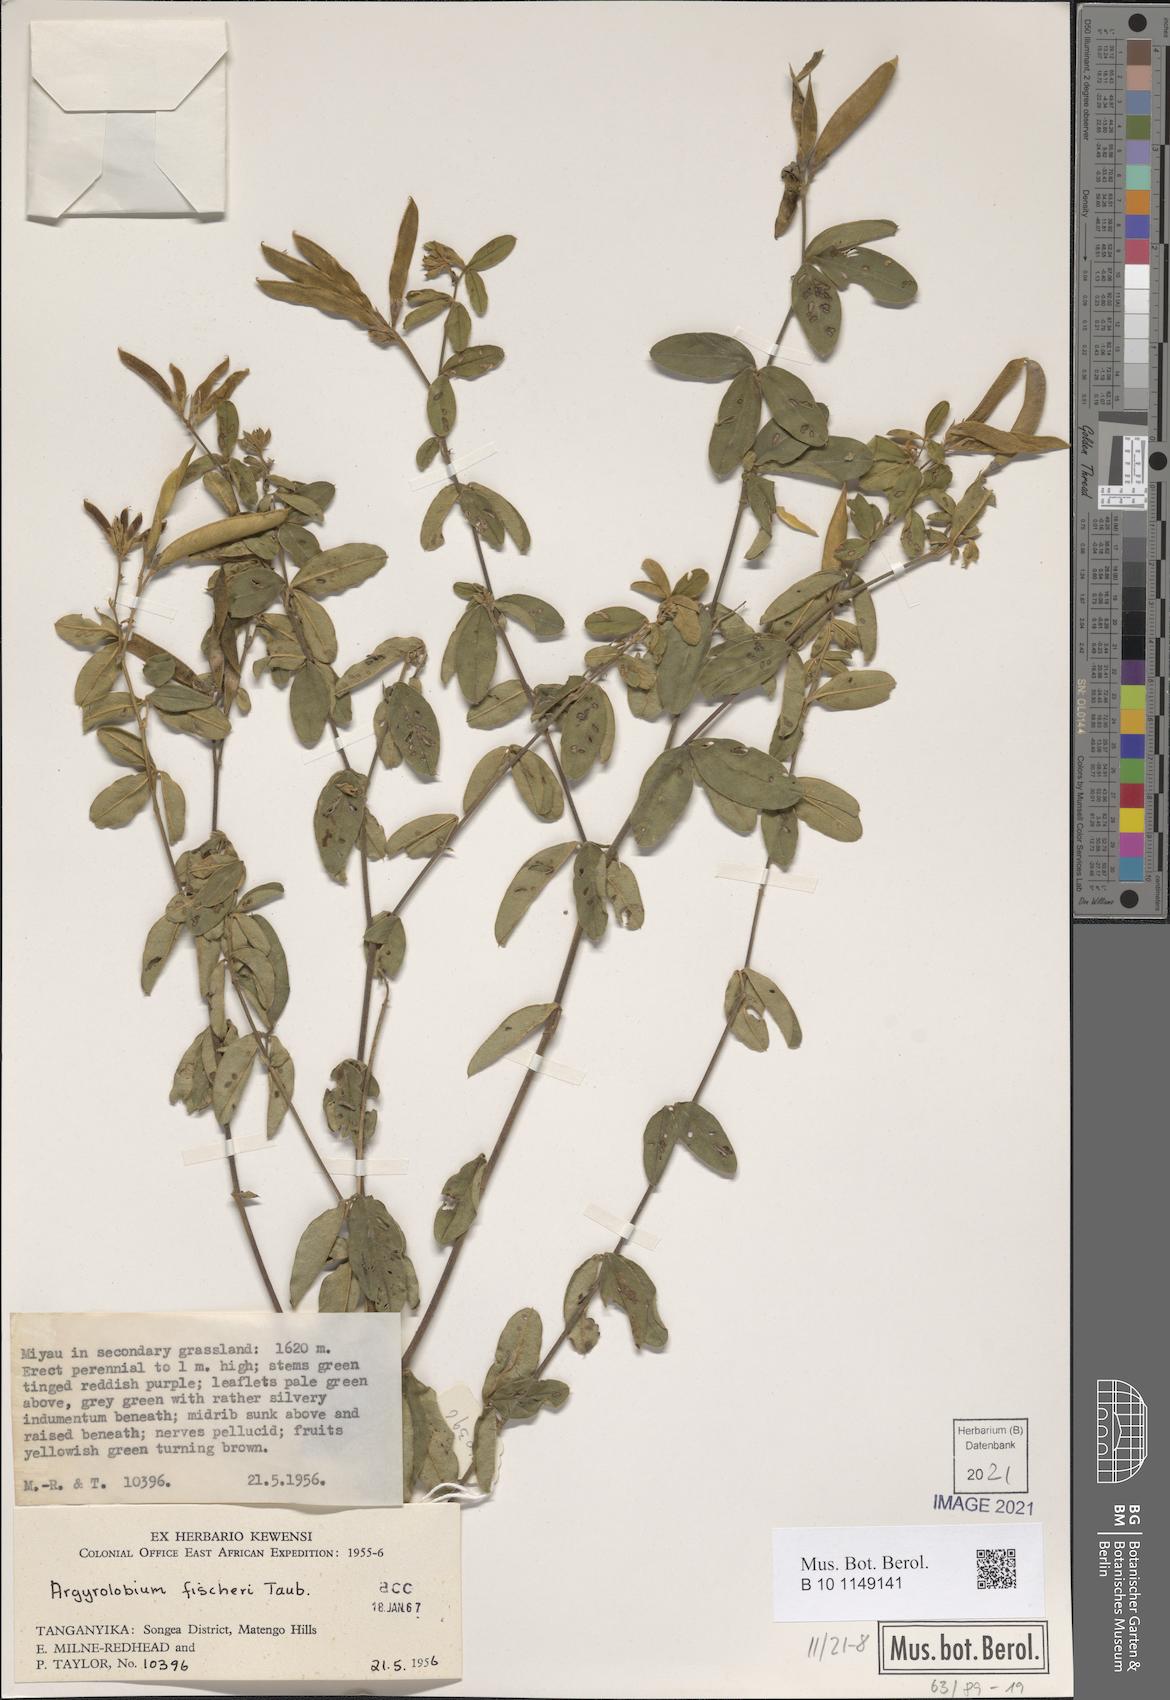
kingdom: Plantae
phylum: Tracheophyta
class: Magnoliopsida
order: Fabales
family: Fabaceae
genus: Argyrolobium
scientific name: Argyrolobium fischeri
